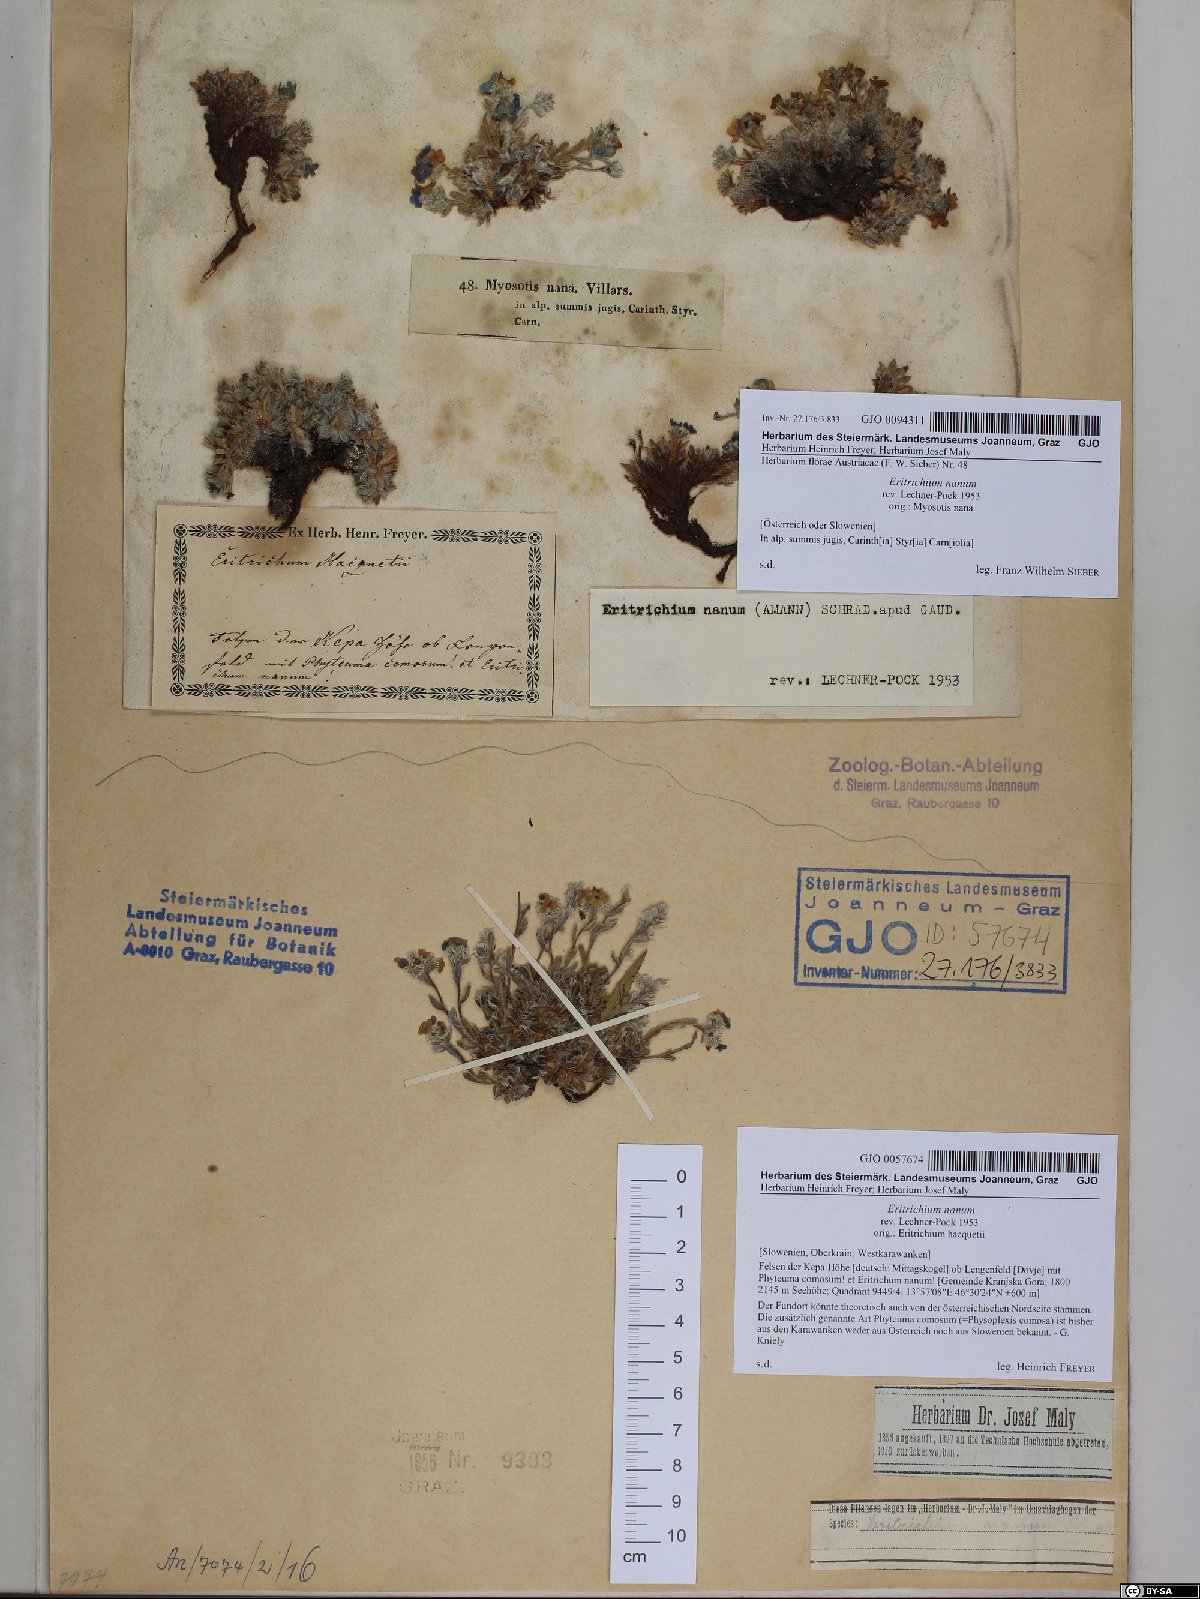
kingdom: Plantae
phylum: Tracheophyta
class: Magnoliopsida
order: Boraginales
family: Boraginaceae
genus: Eritrichium
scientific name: Eritrichium nanum
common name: King-of-the-alps
